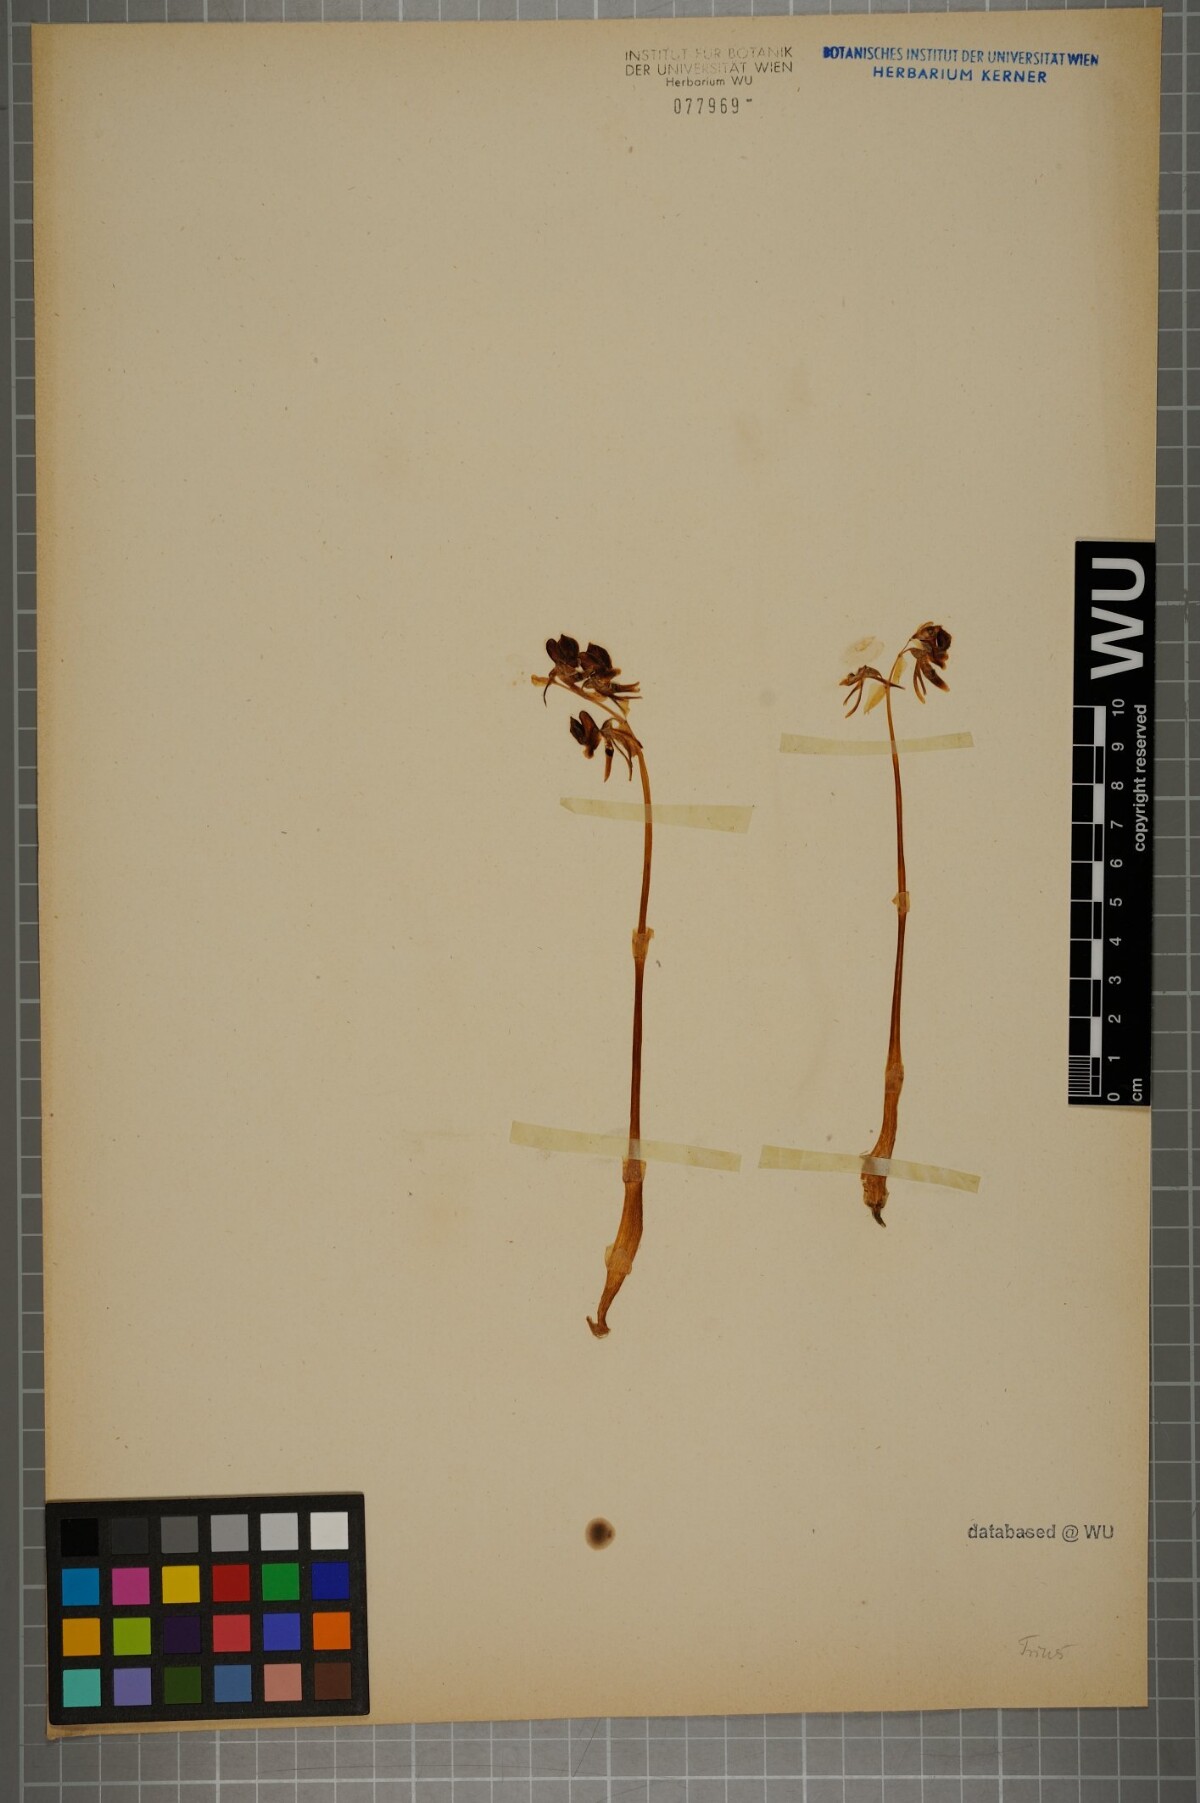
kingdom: Plantae
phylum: Tracheophyta
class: Liliopsida
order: Asparagales
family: Orchidaceae
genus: Epipogium
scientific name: Epipogium aphyllum
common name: Ghost orchid
